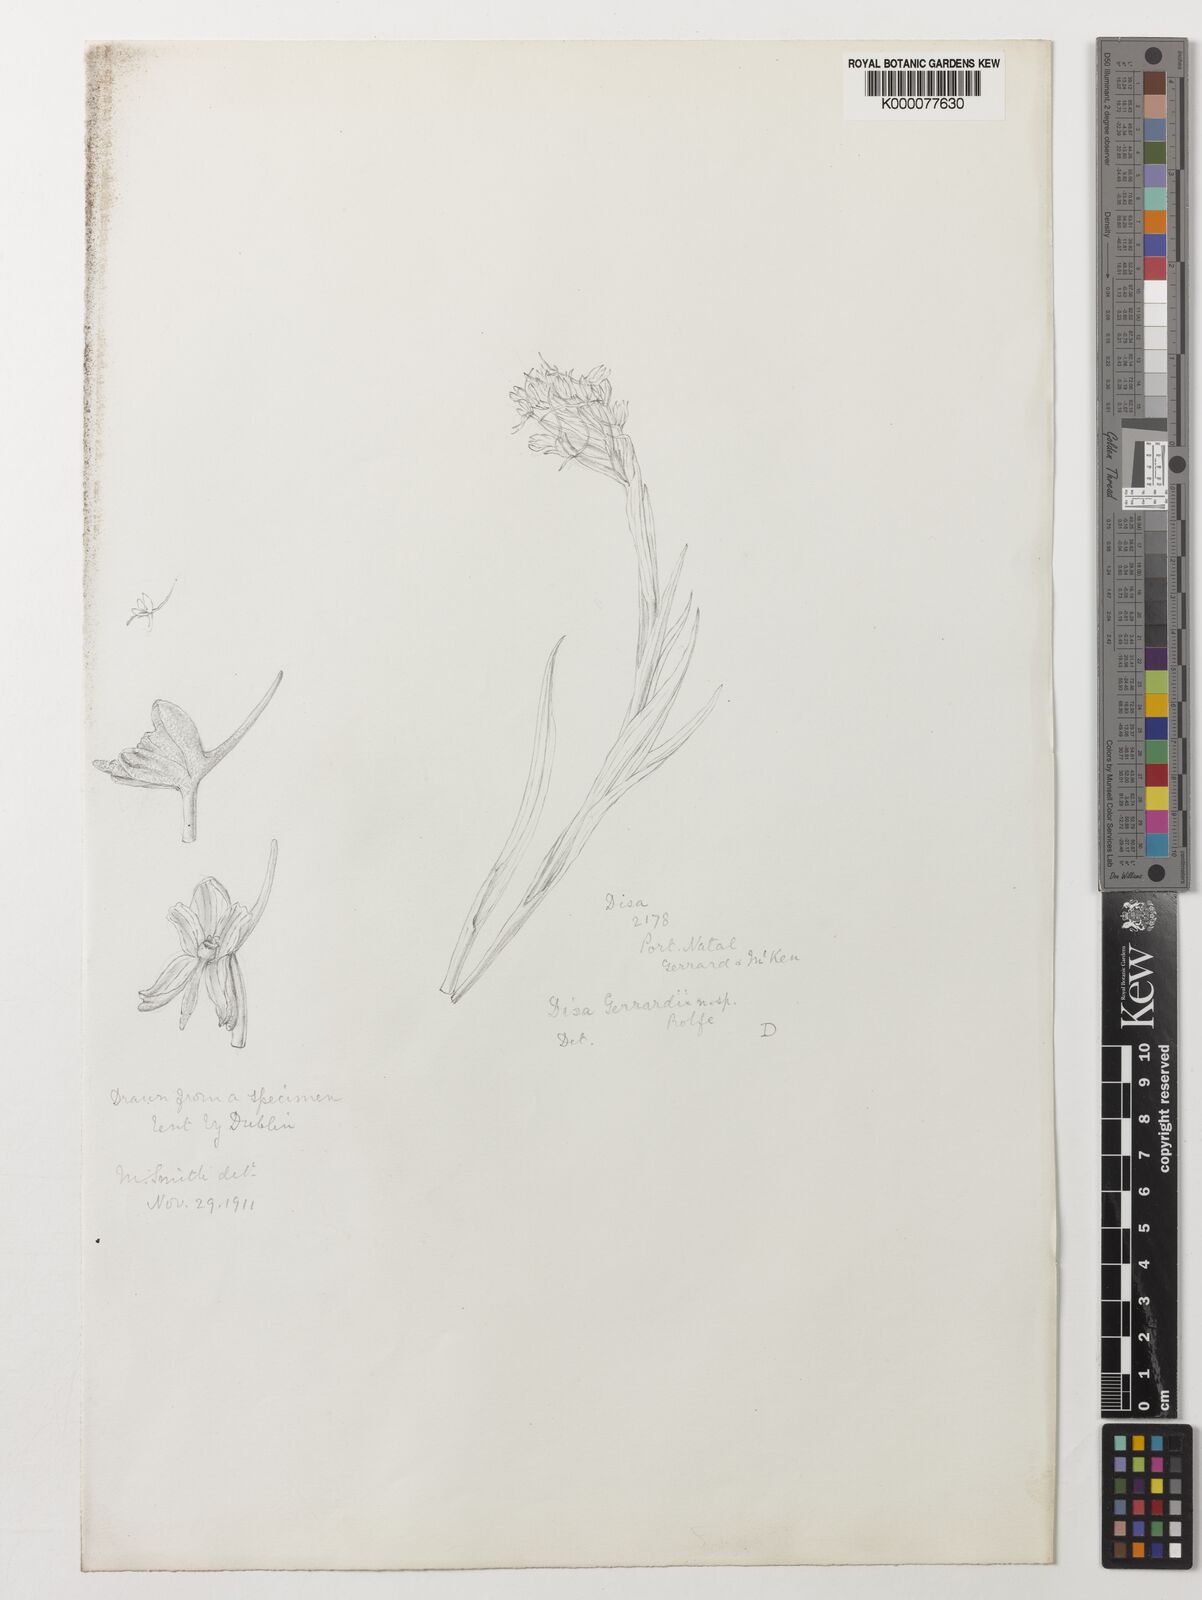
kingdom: Plantae
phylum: Tracheophyta
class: Liliopsida
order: Asparagales
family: Orchidaceae
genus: Disa
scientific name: Disa patula
